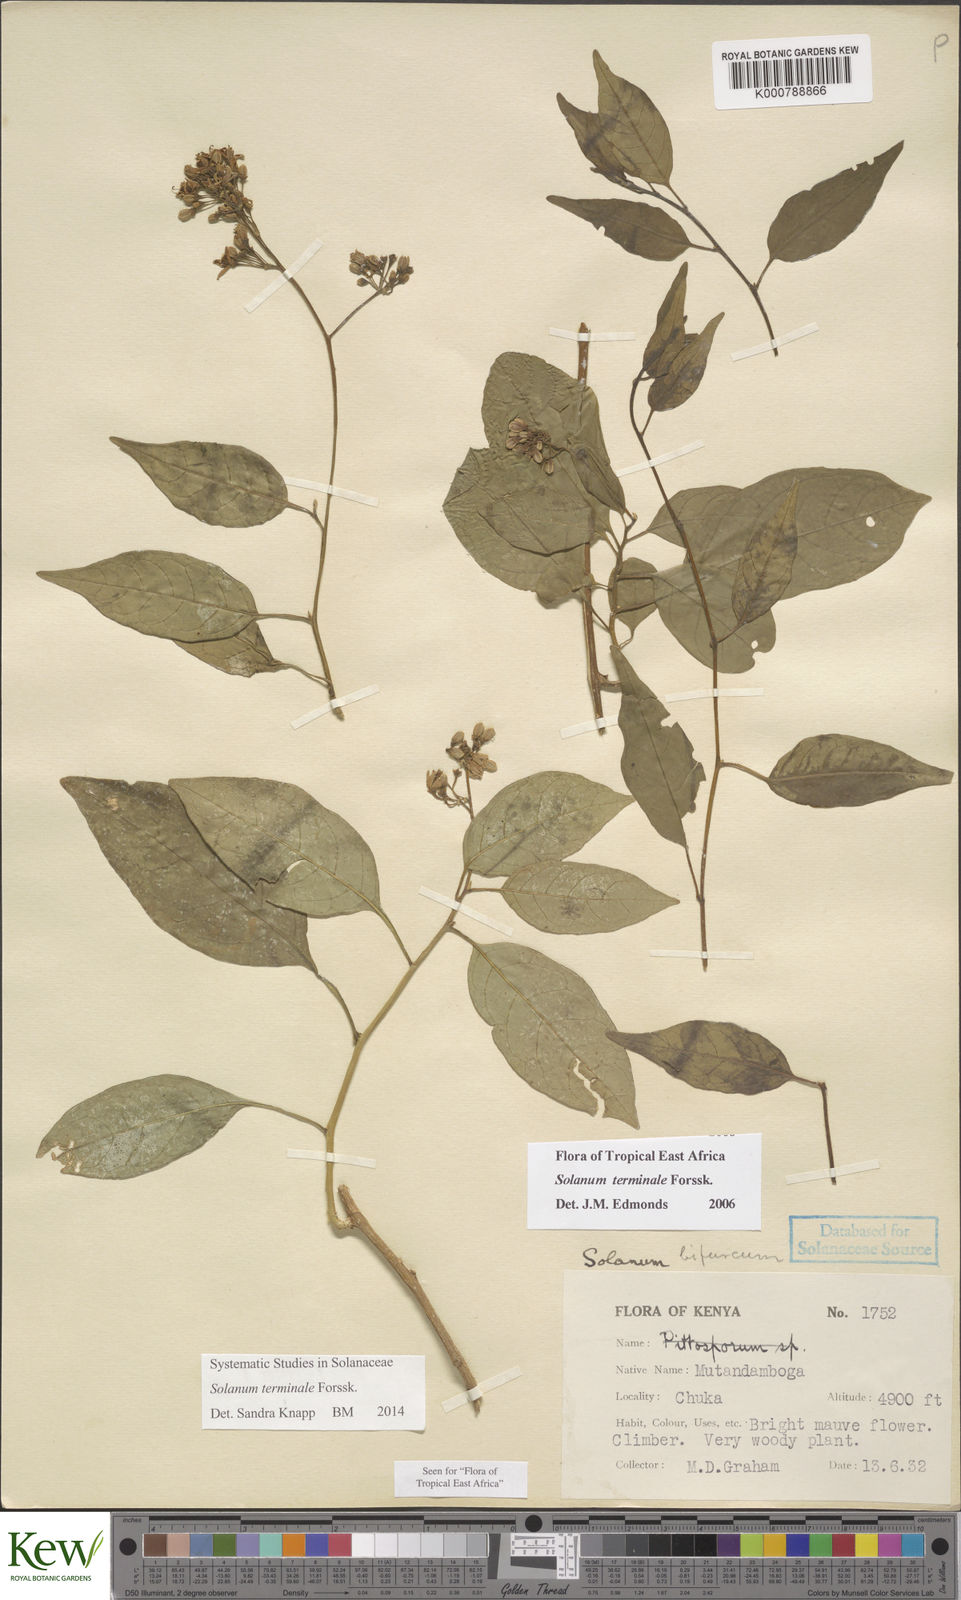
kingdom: Plantae
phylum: Tracheophyta
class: Magnoliopsida
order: Solanales
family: Solanaceae
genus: Solanum
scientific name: Solanum terminale
